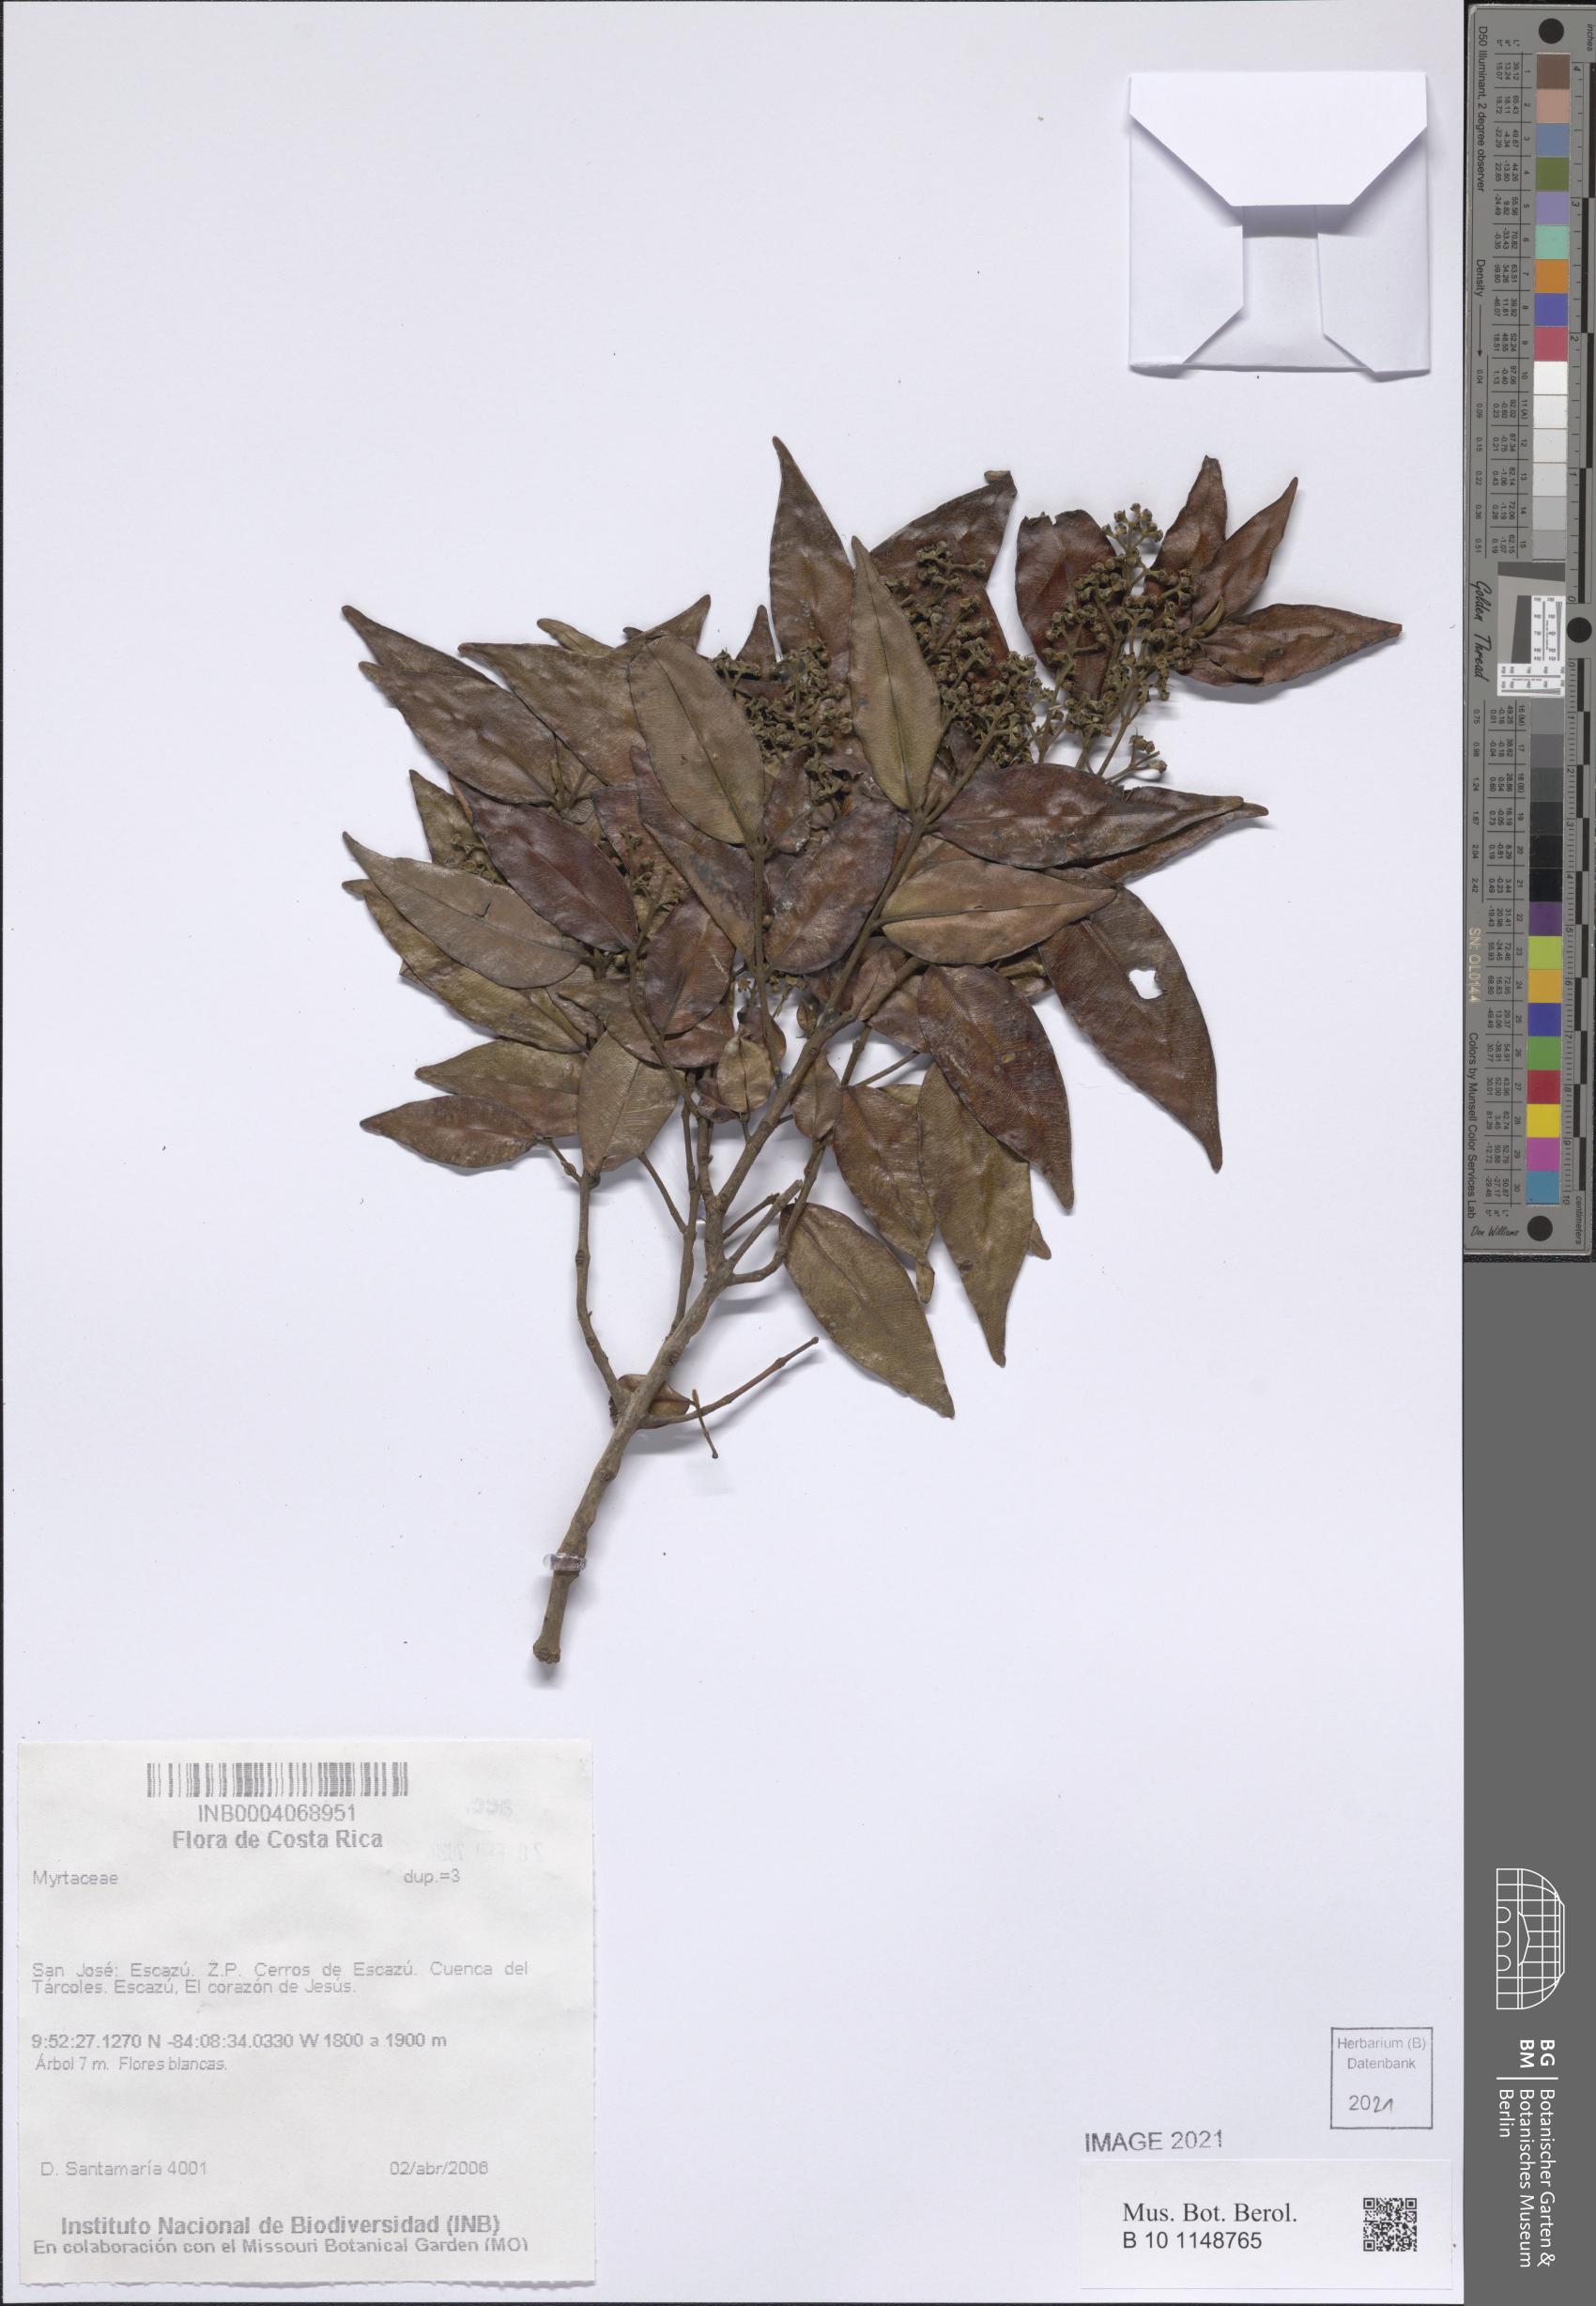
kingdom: Plantae
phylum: Tracheophyta
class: Magnoliopsida
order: Myrtales
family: Myrtaceae
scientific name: Myrtaceae
